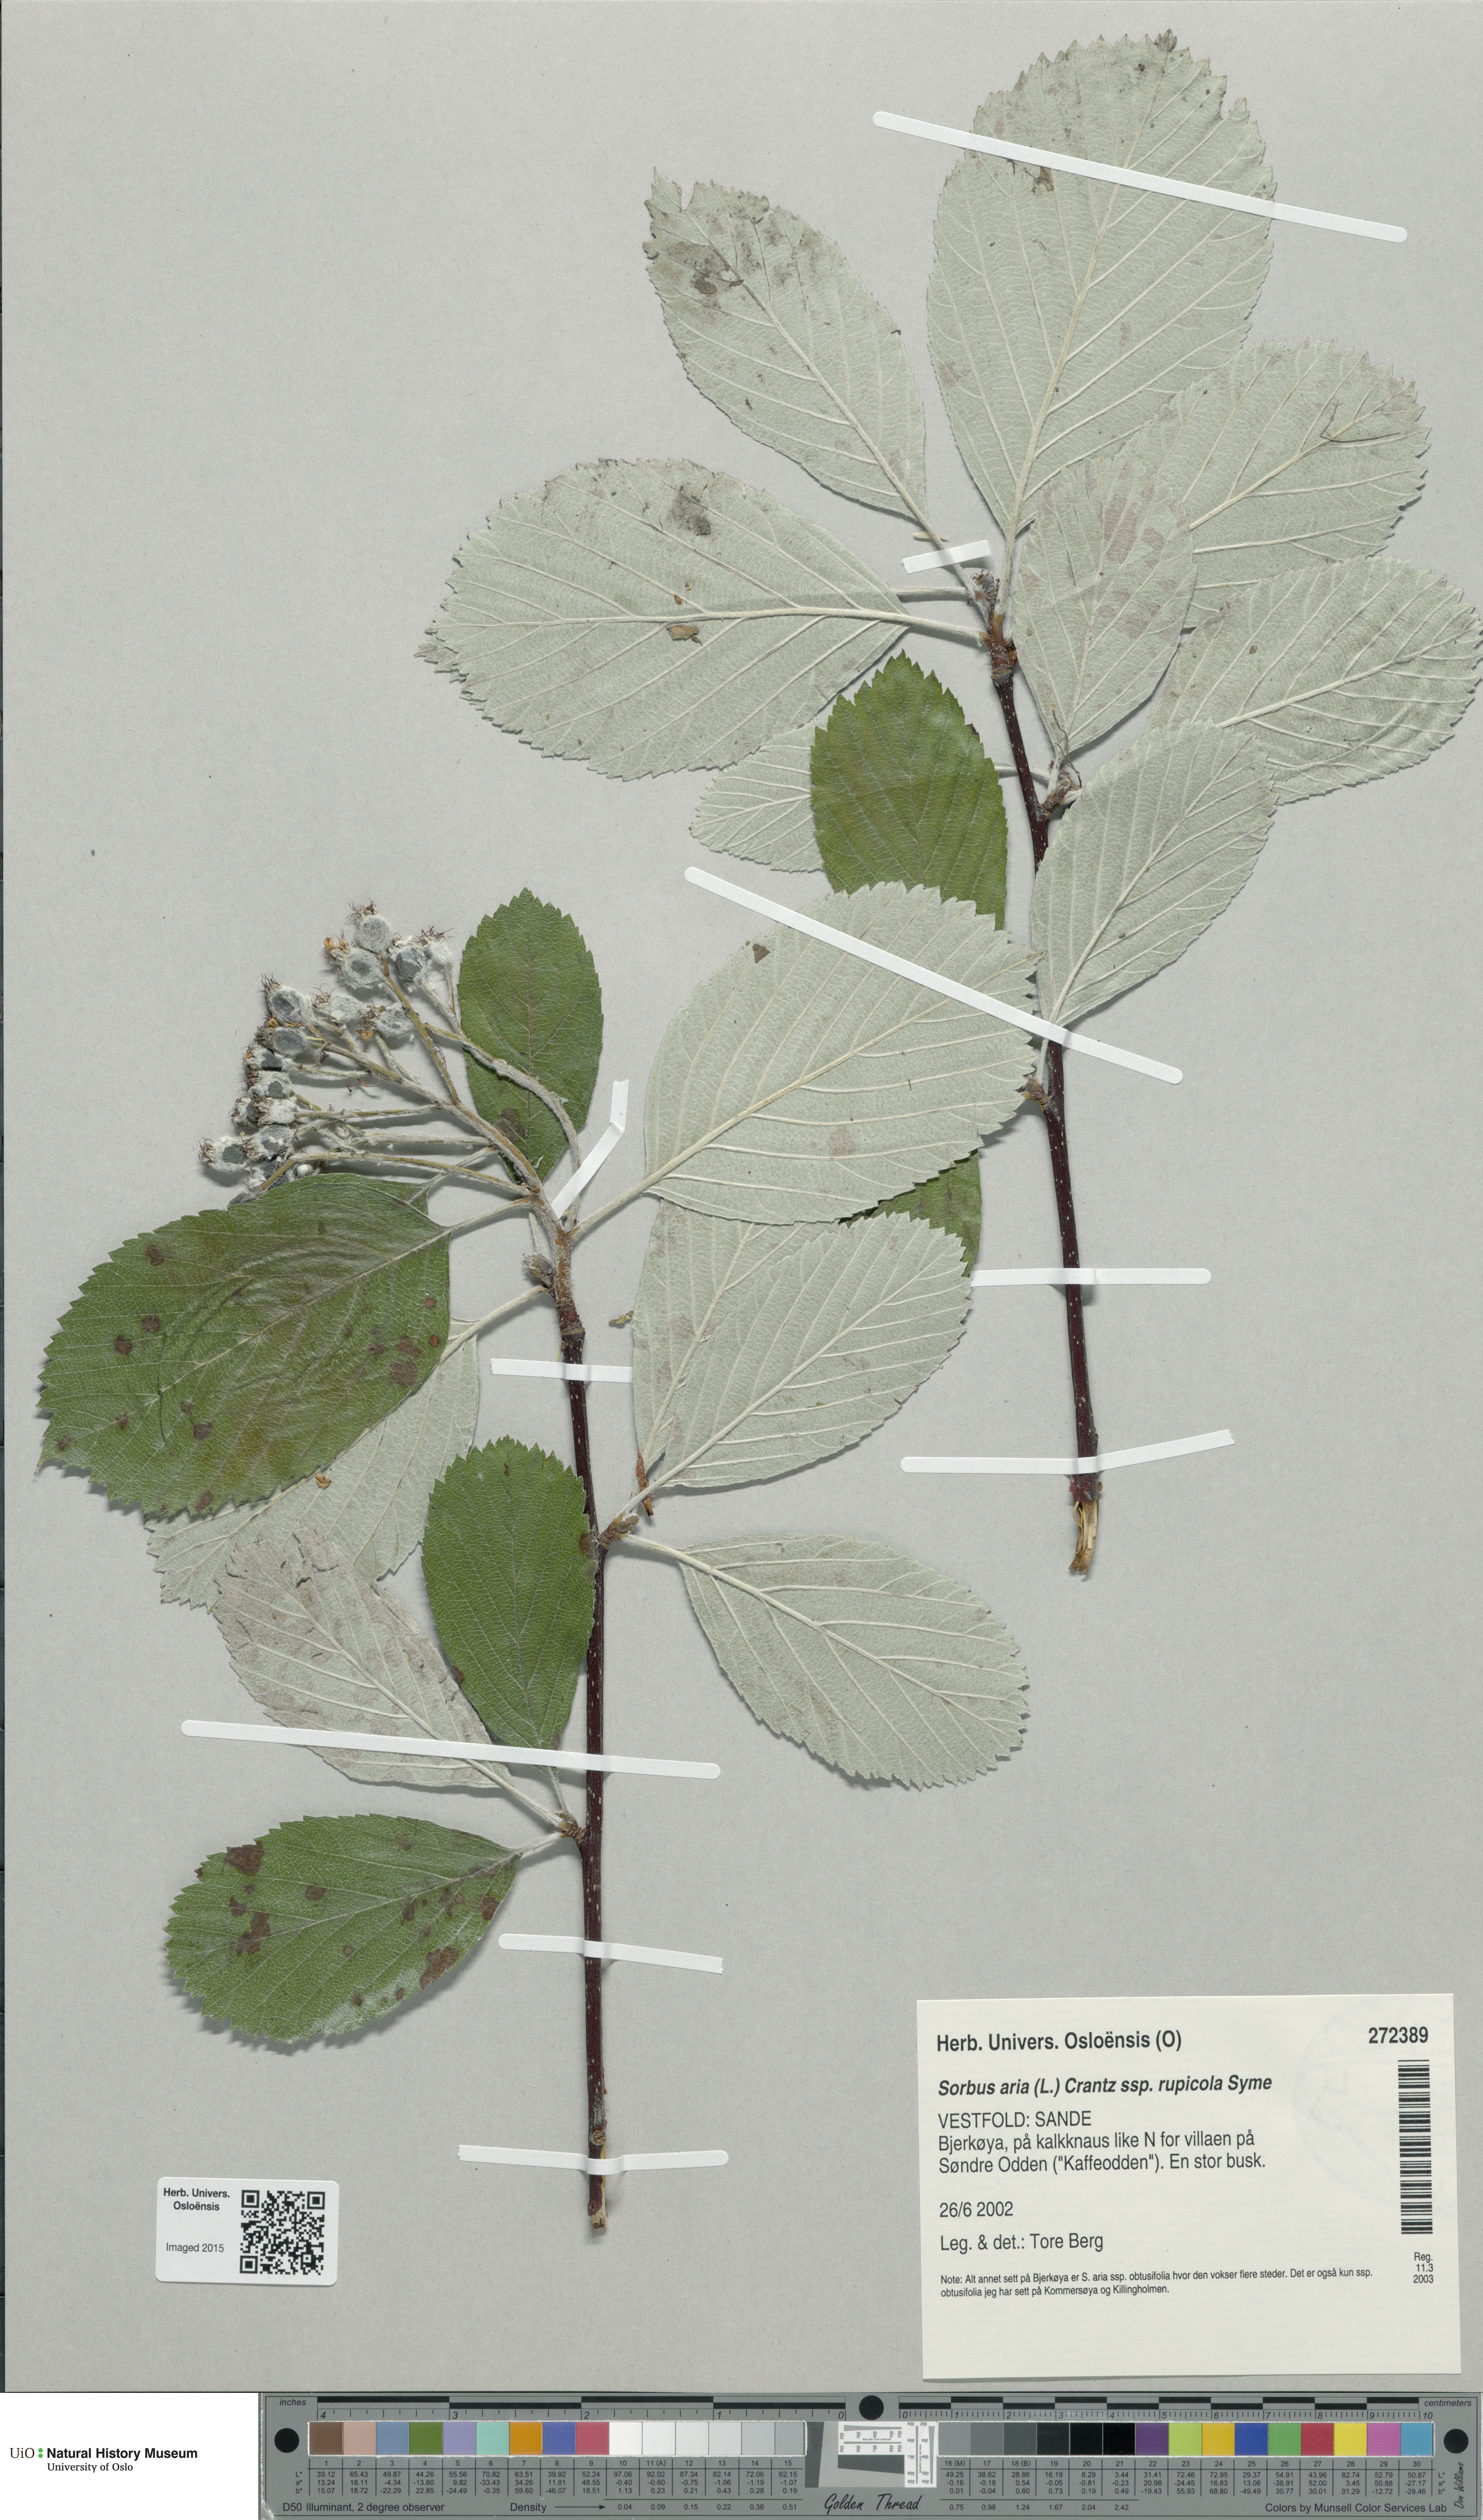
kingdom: Plantae
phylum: Tracheophyta
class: Magnoliopsida
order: Rosales
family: Rosaceae
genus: Aria
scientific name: Aria rupicola
